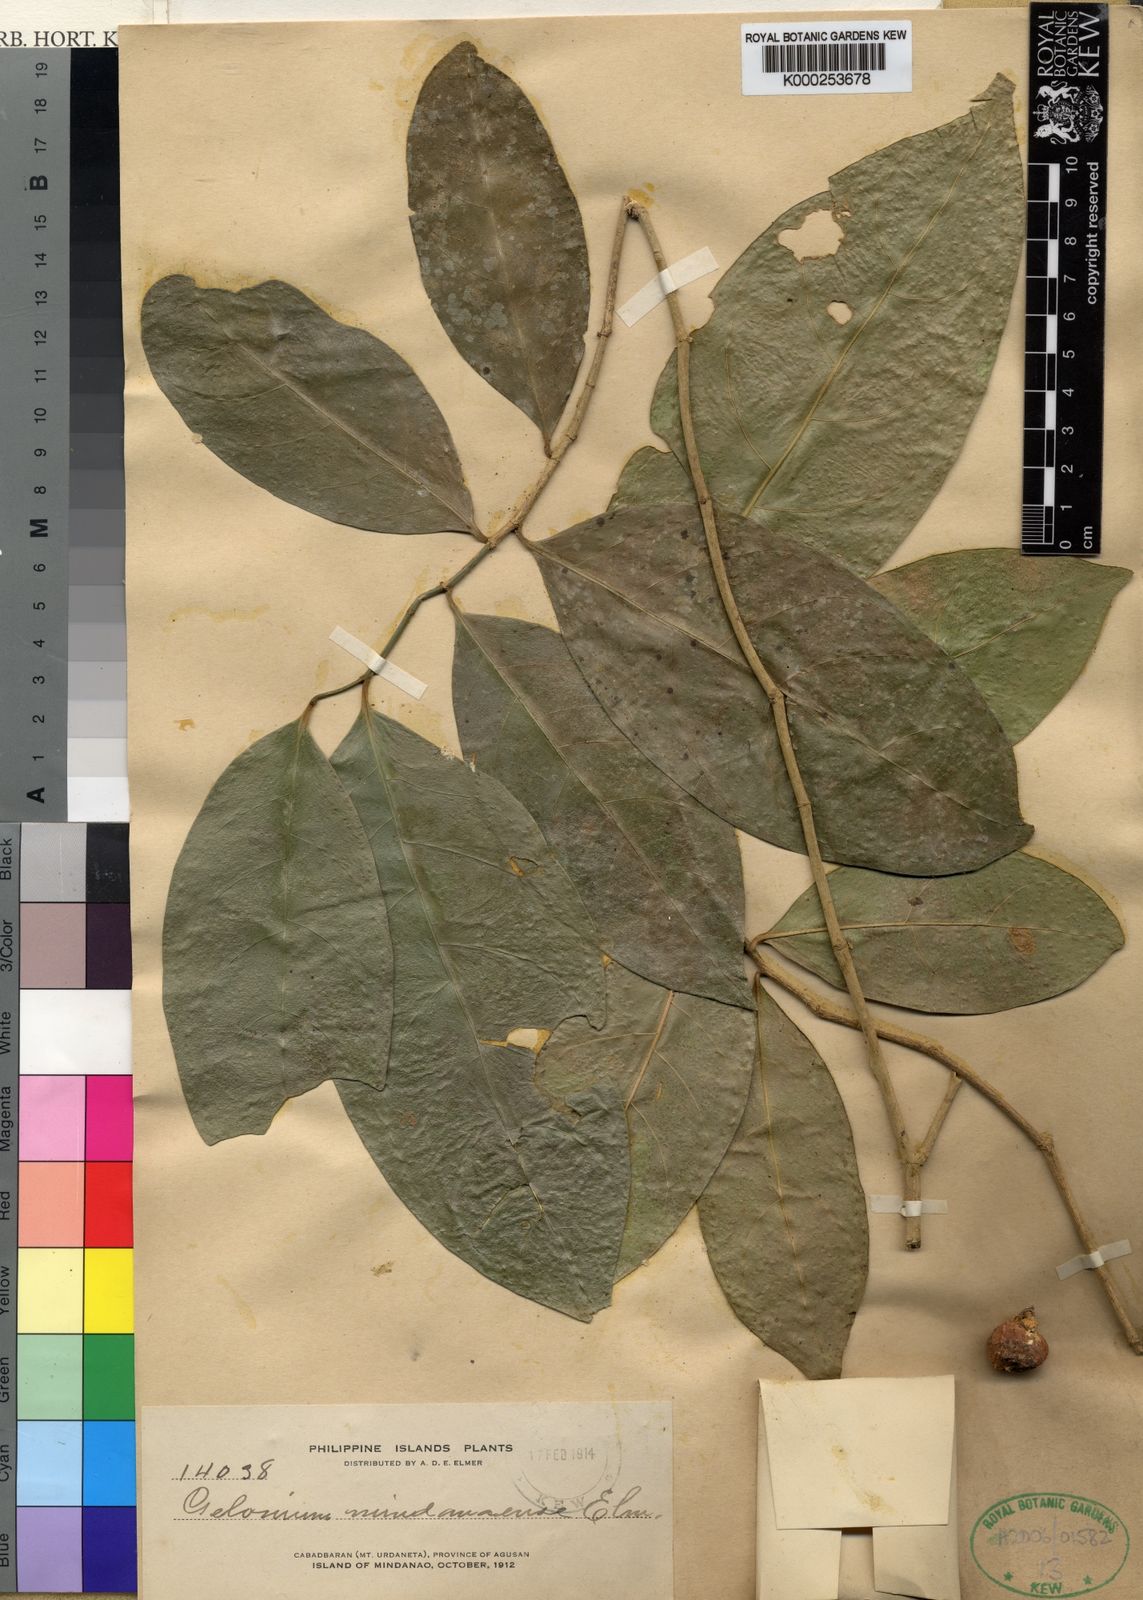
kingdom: Plantae
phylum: Tracheophyta
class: Magnoliopsida
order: Malpighiales
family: Euphorbiaceae
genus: Suregada
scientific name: Suregada glomerulata
